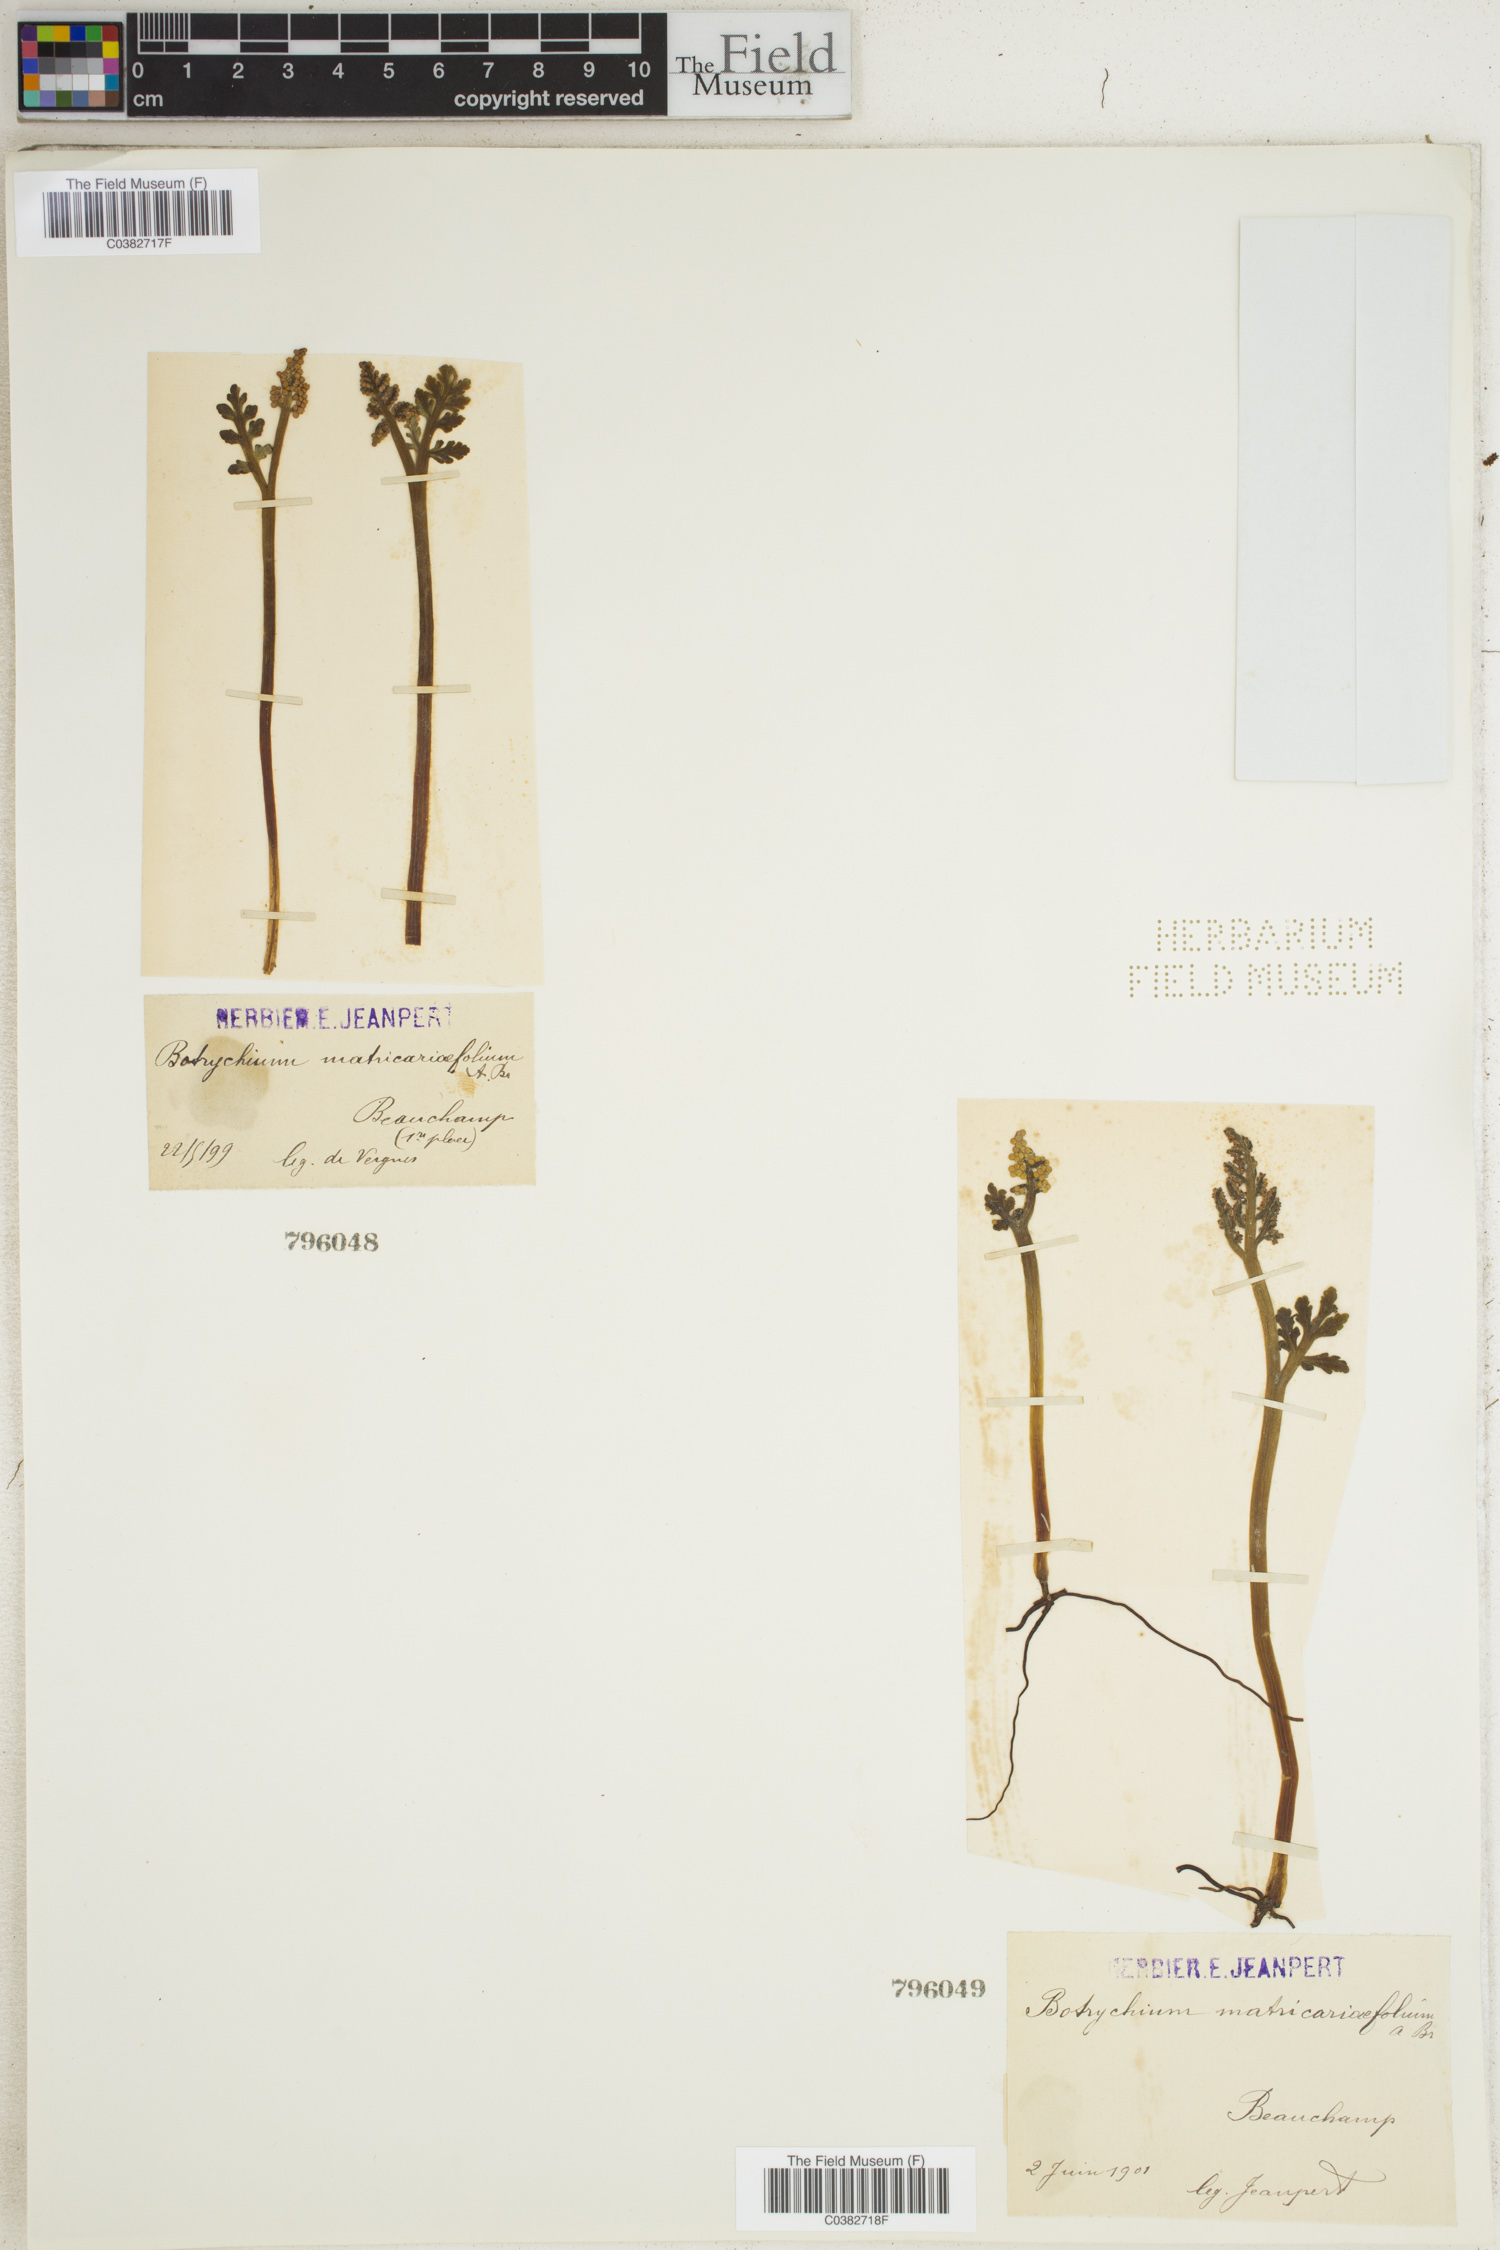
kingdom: Plantae
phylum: Tracheophyta
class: Polypodiopsida
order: Ophioglossales
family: Ophioglossaceae
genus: Botrychium
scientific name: Botrychium matricariifolium
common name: Branched moonwort
